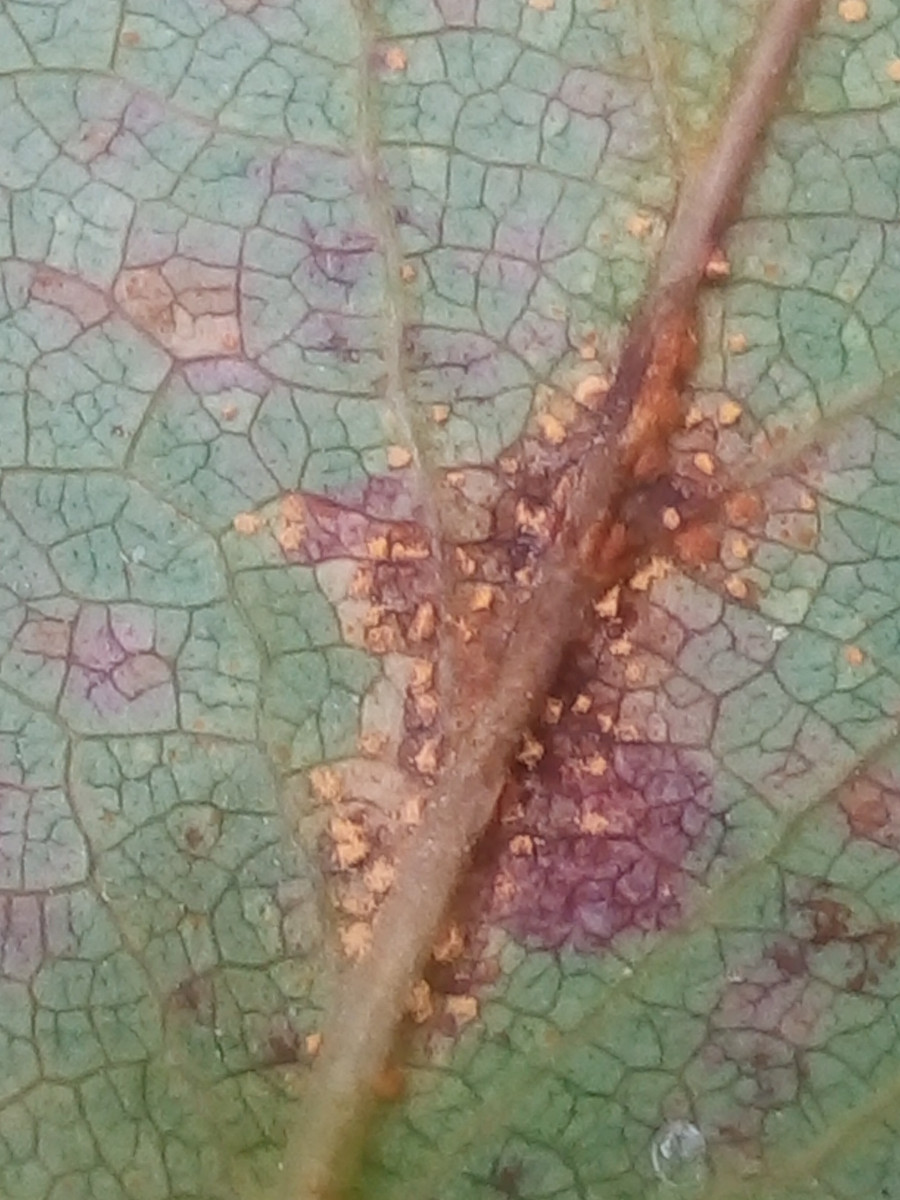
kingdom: Fungi
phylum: Basidiomycota
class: Pucciniomycetes
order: Pucciniales
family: Melampsoraceae
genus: Melampsora
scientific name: Melampsora hypericorum
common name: Tutsan rust
